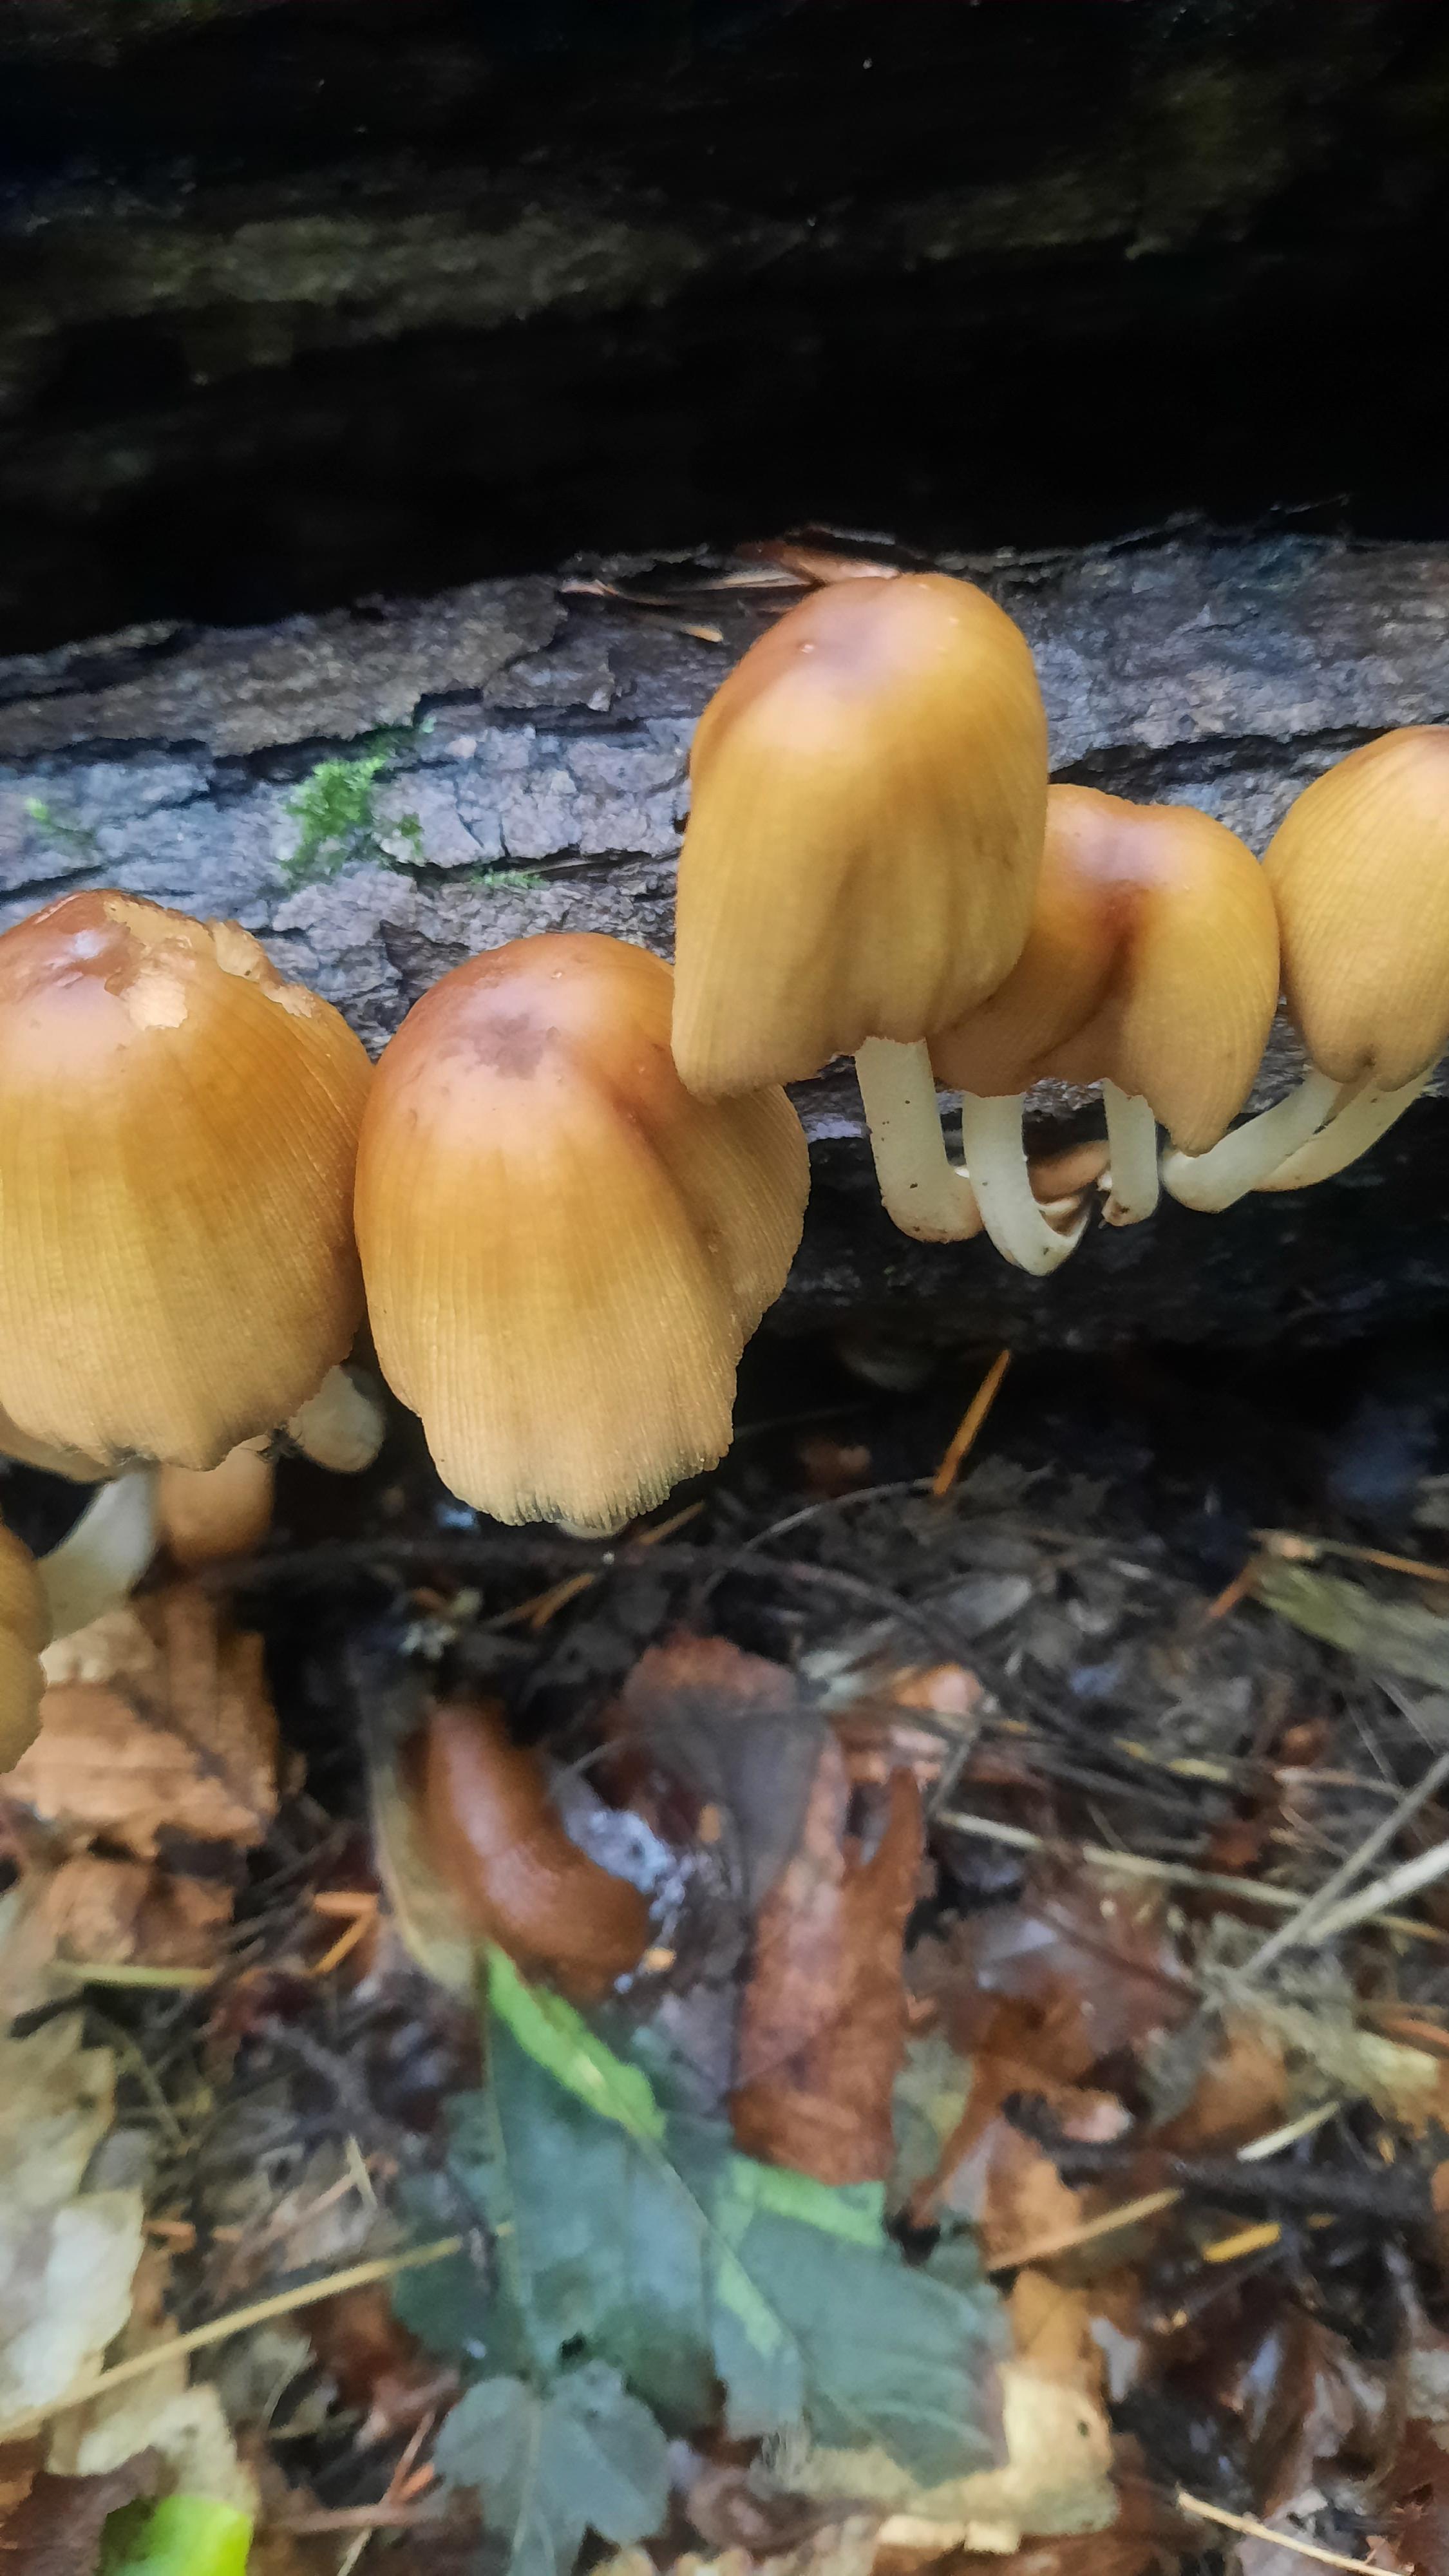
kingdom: Fungi
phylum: Basidiomycota
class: Agaricomycetes
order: Agaricales
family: Psathyrellaceae
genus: Coprinellus
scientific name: Coprinellus micaceus
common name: glimmer-blækhat
